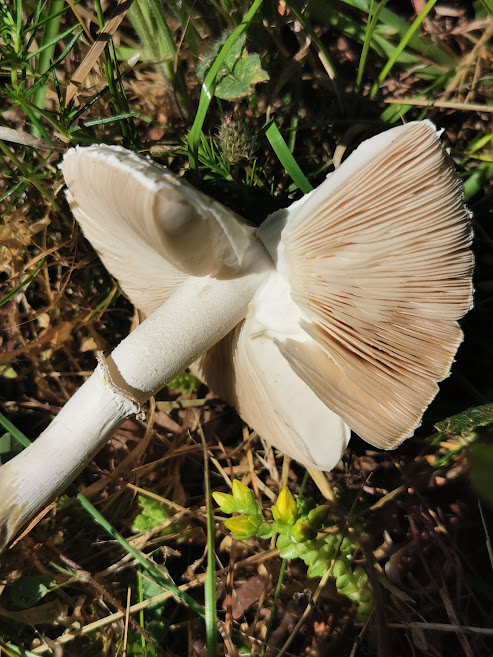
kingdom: Fungi
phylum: Basidiomycota
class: Agaricomycetes
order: Agaricales
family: Agaricaceae
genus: Leucoagaricus
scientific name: Leucoagaricus leucothites
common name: rosabladet silkehat
